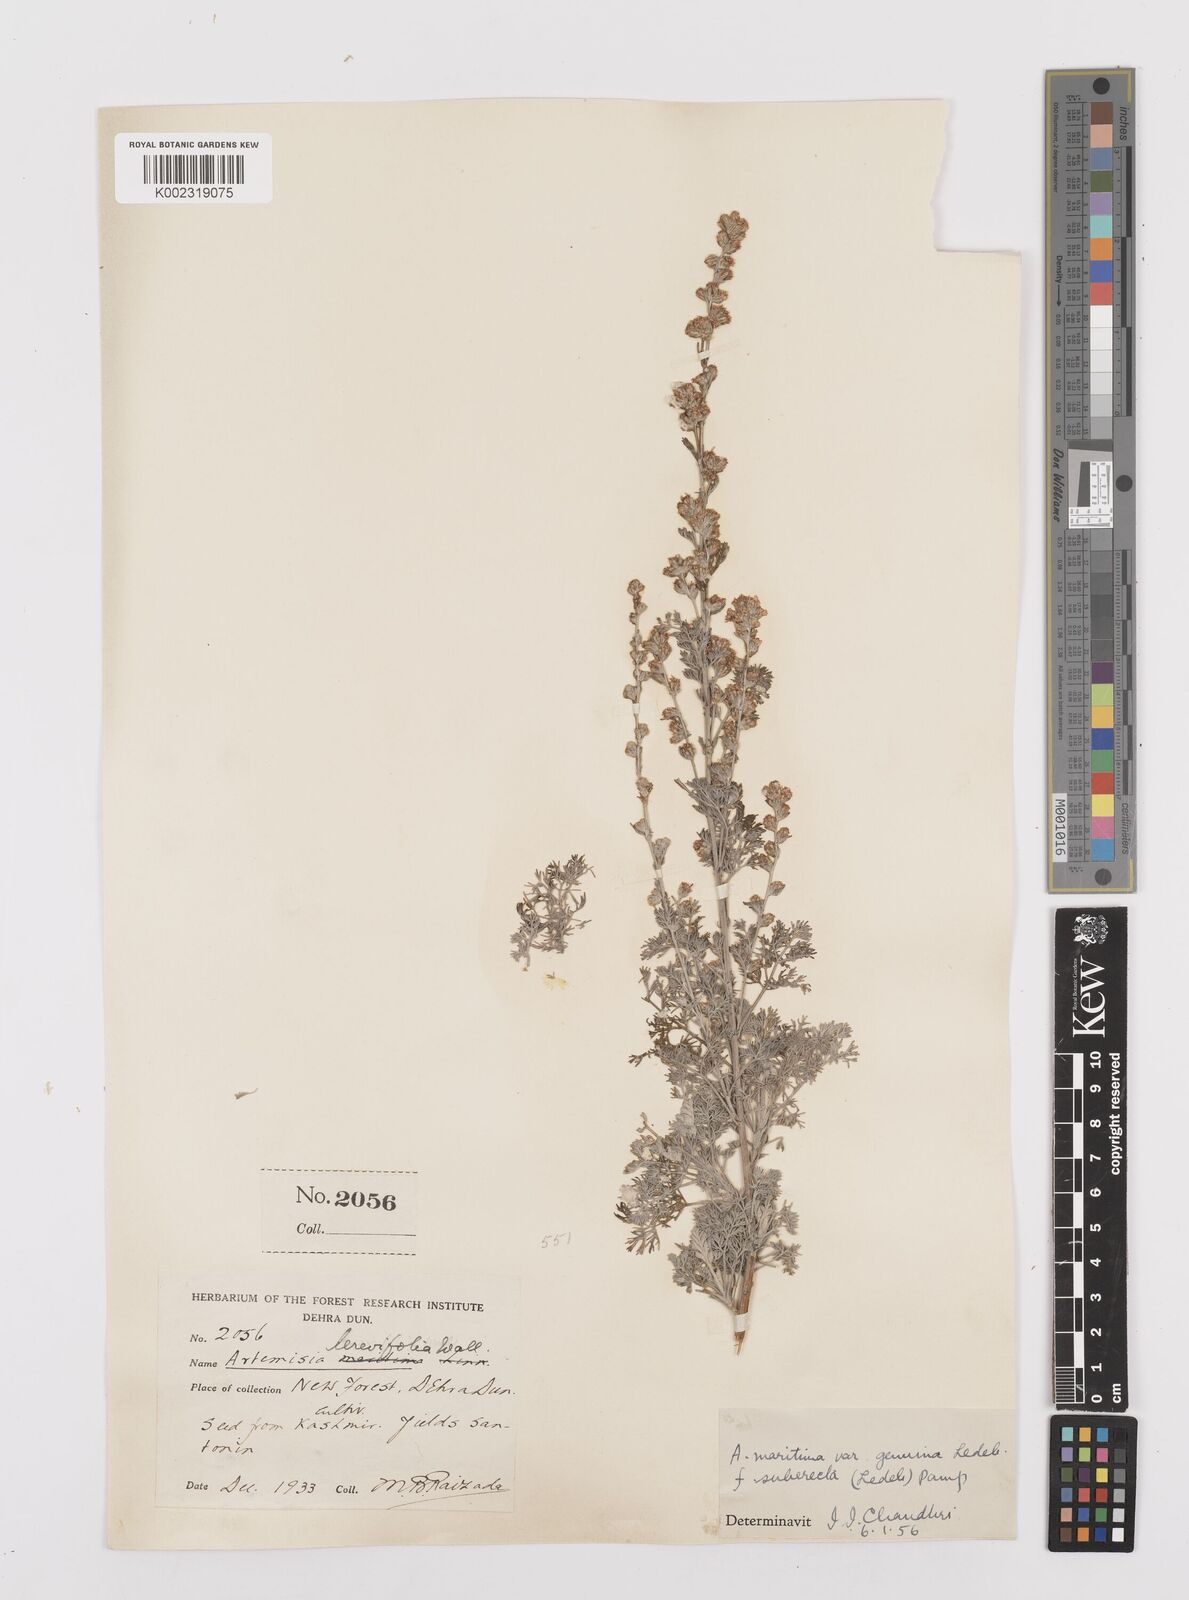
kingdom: Plantae
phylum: Tracheophyta
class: Magnoliopsida
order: Asterales
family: Asteraceae
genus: Artemisia
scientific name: Artemisia compacta
